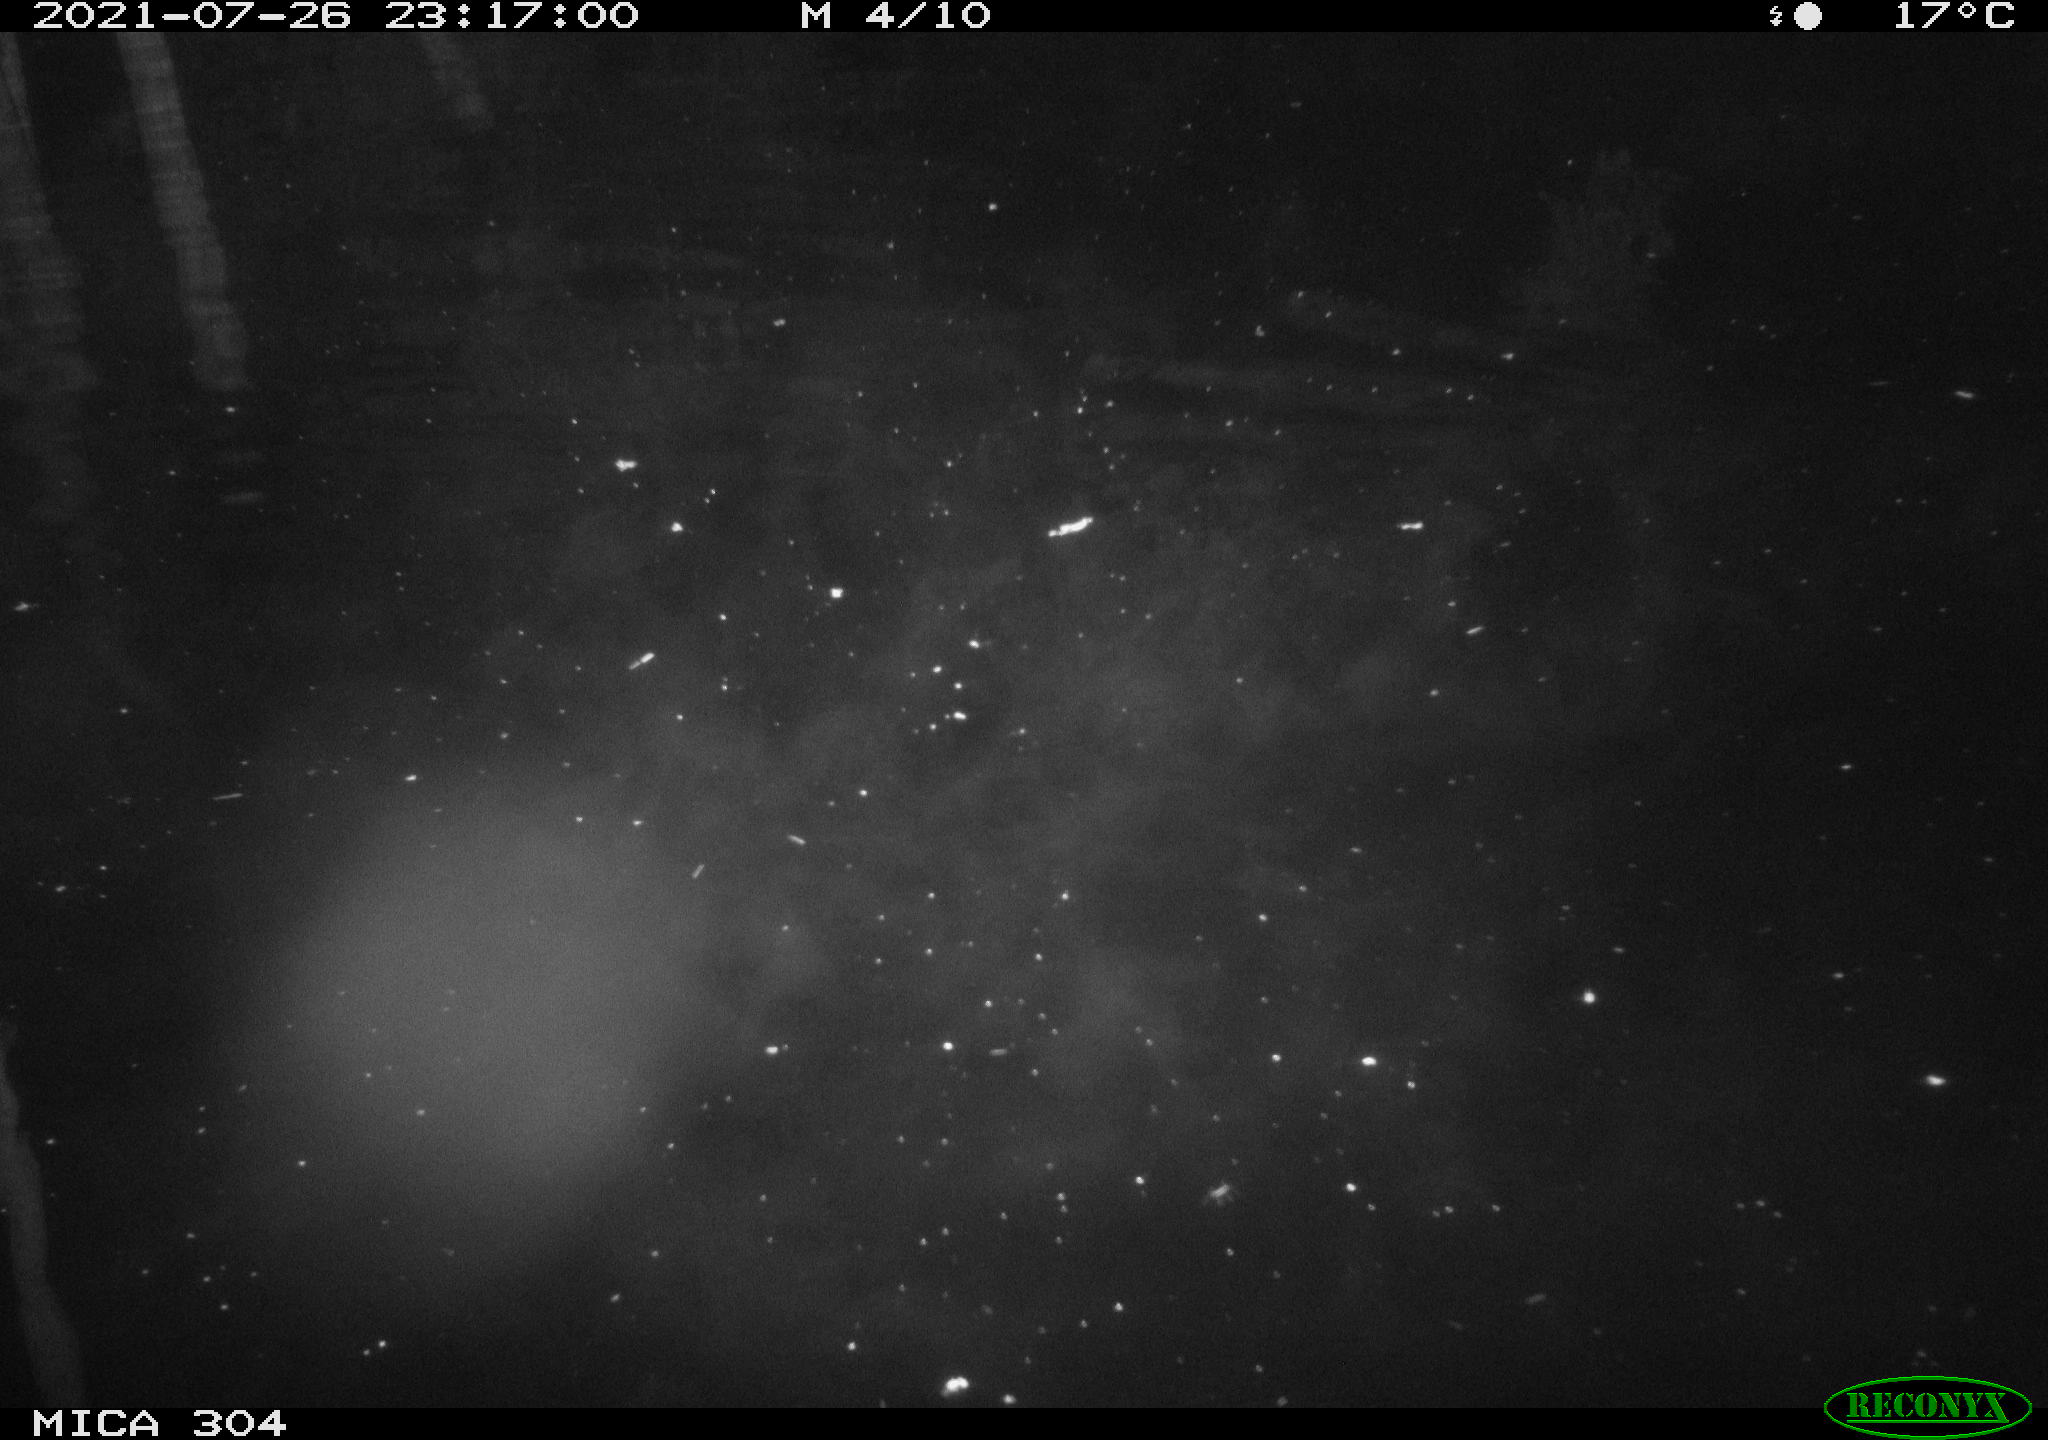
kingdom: Animalia
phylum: Chordata
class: Mammalia
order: Rodentia
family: Muridae
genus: Rattus
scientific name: Rattus norvegicus
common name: Brown rat
